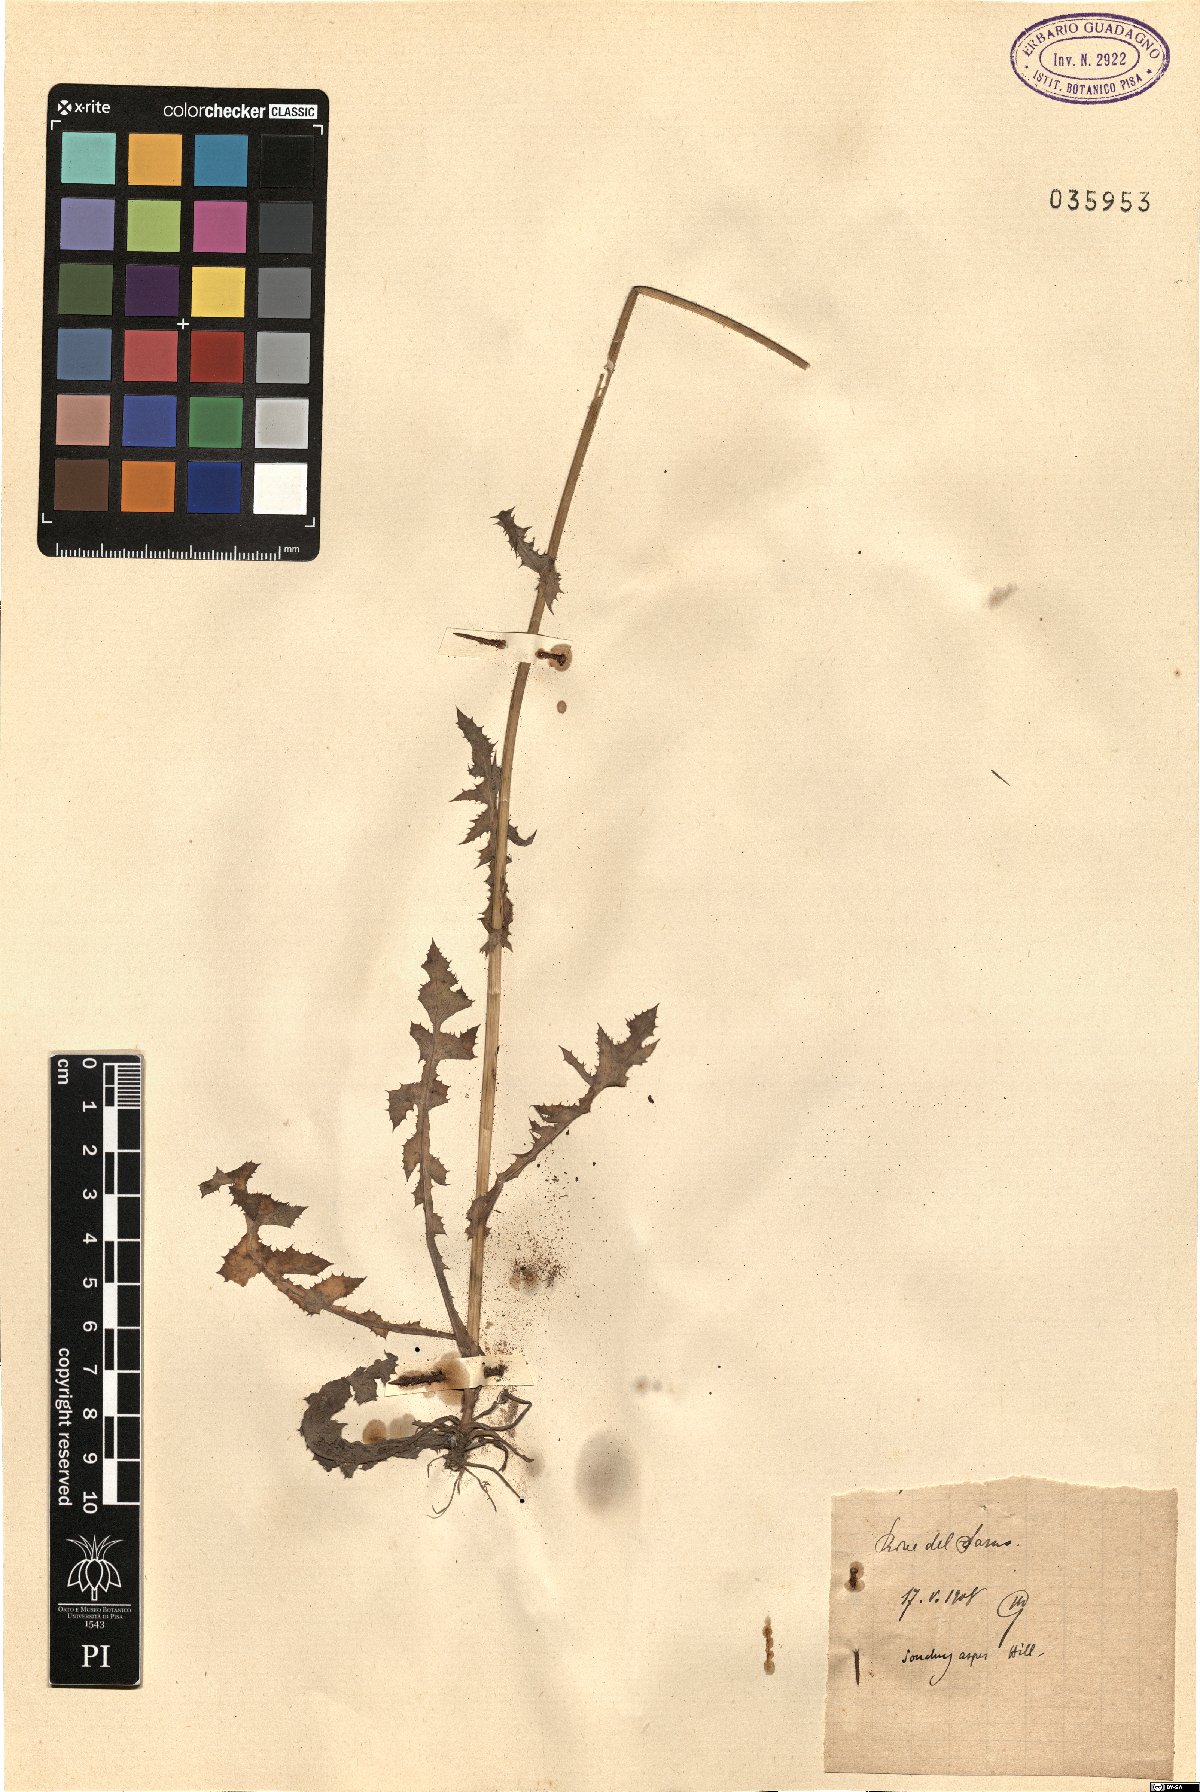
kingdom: Plantae
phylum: Tracheophyta
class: Magnoliopsida
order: Asterales
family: Asteraceae
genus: Sonchus
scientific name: Sonchus asper
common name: Prickly sow-thistle
